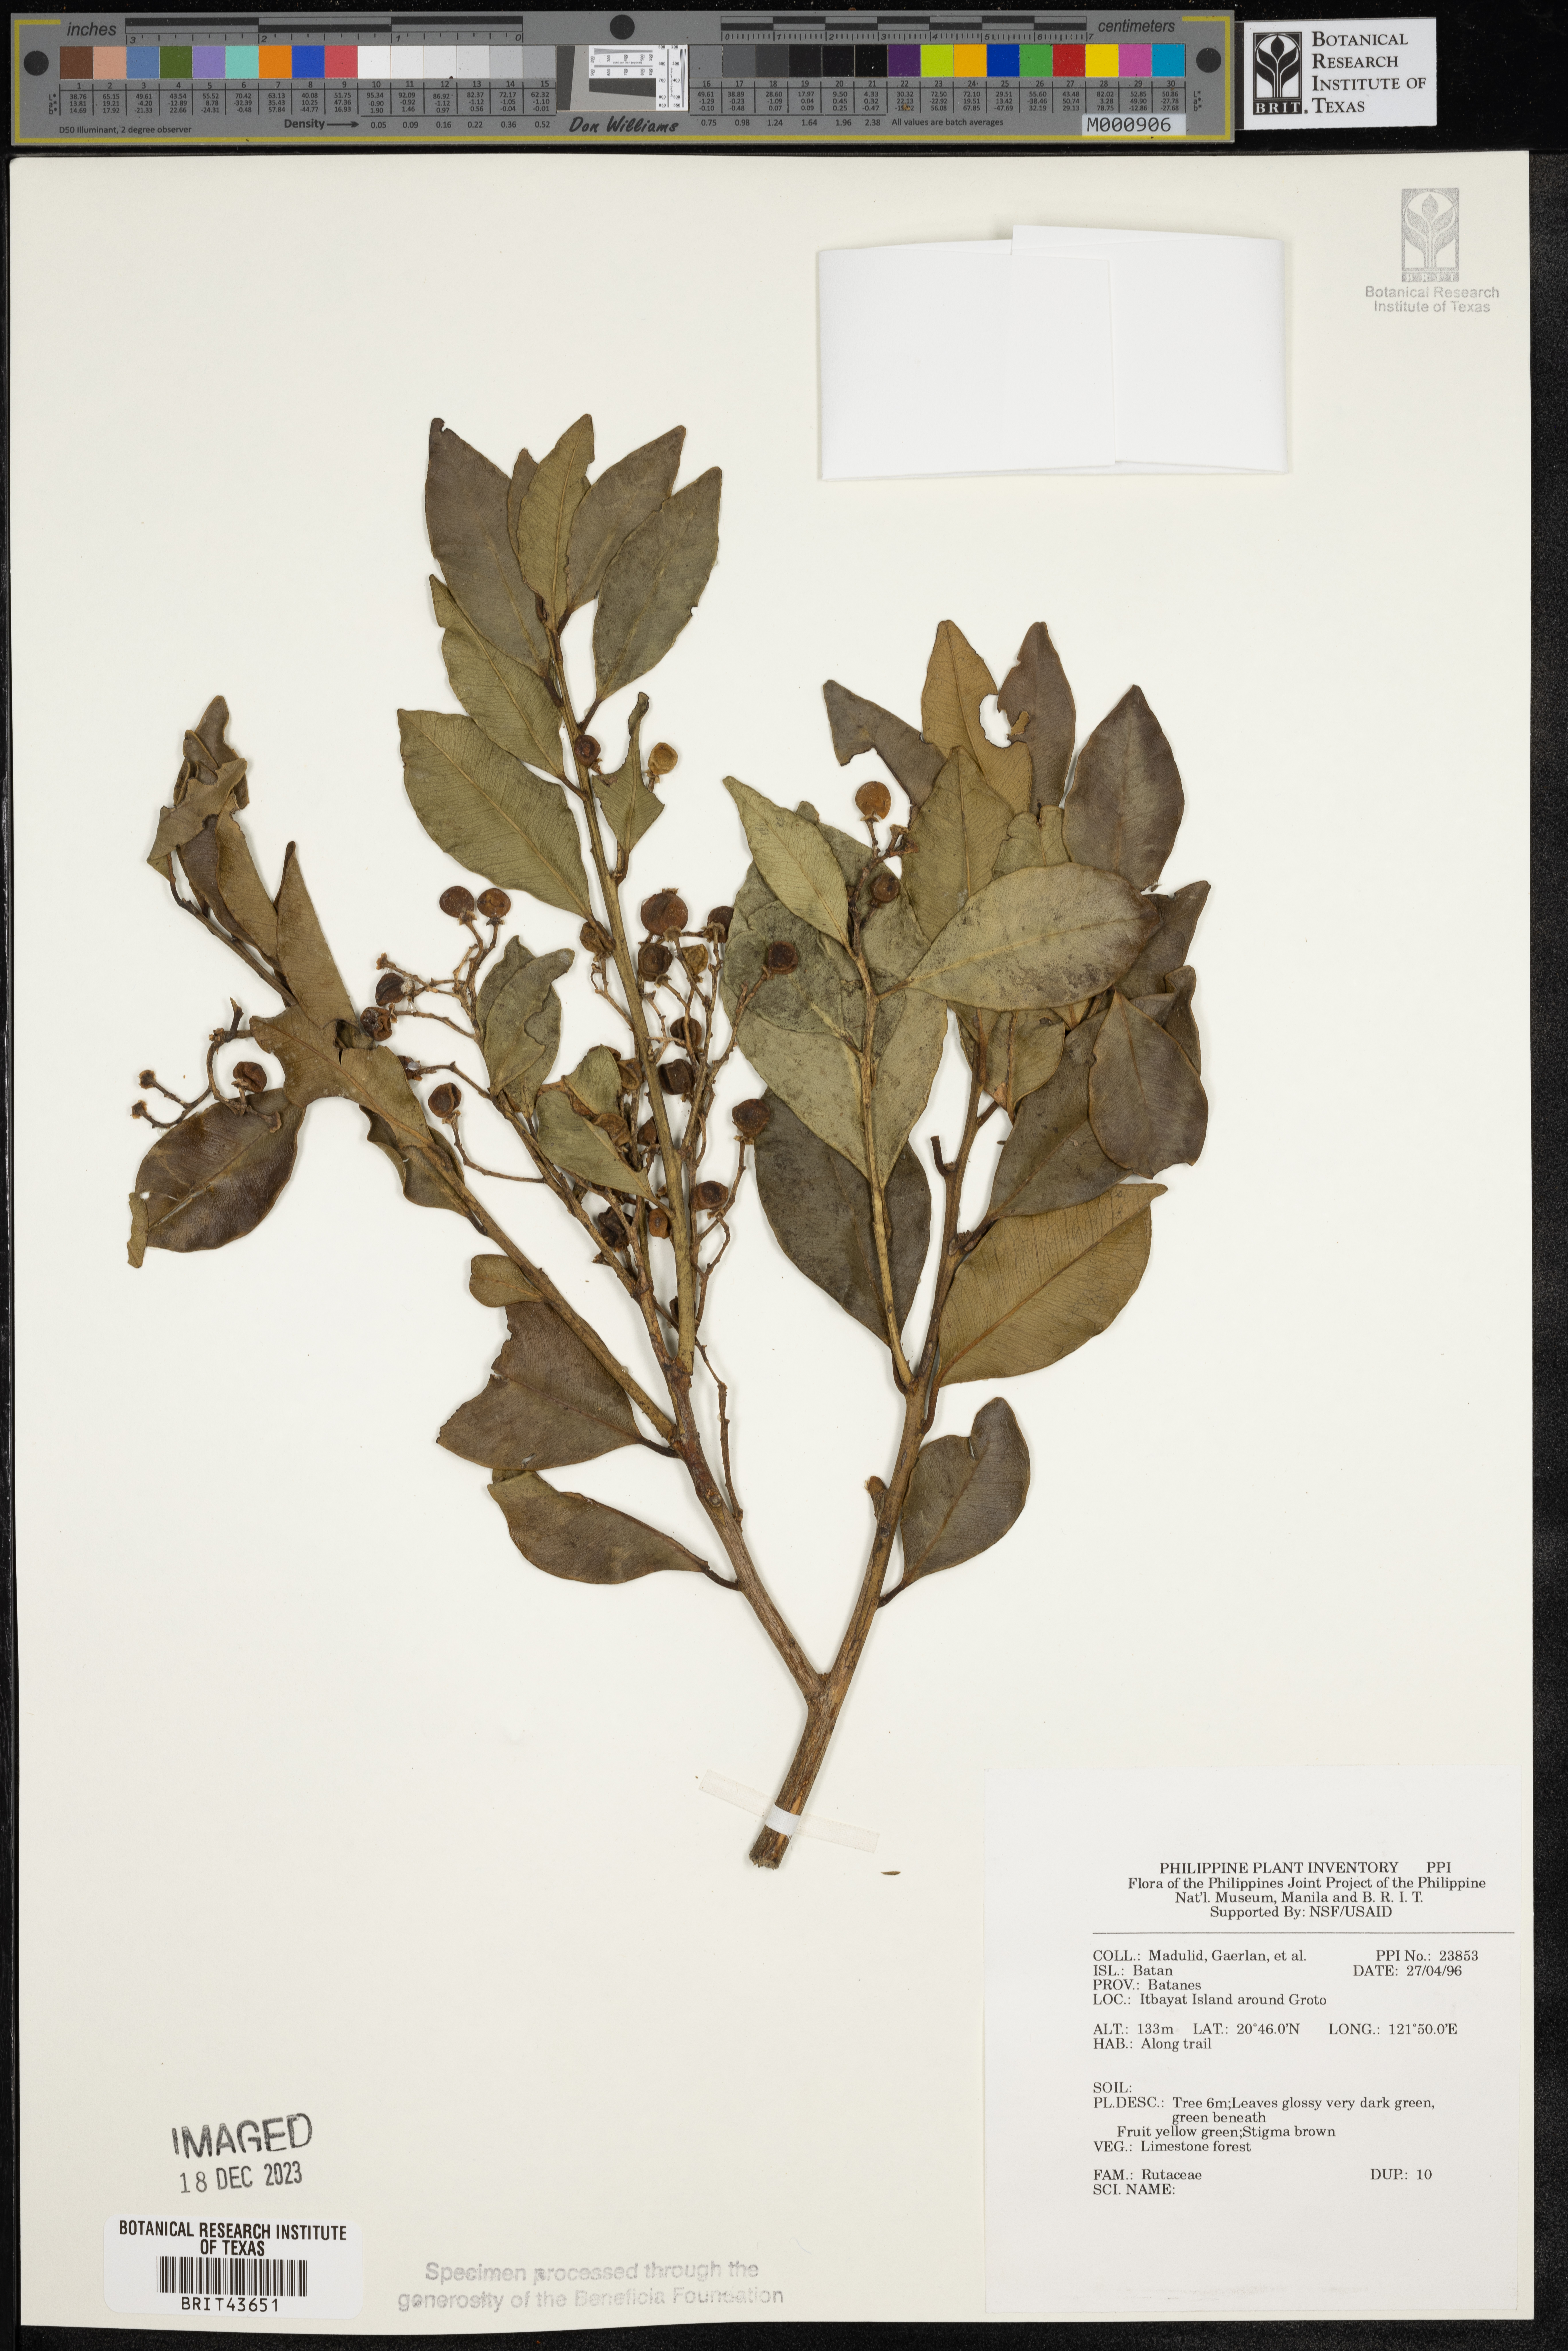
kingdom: Plantae
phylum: Tracheophyta
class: Magnoliopsida
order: Sapindales
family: Rutaceae
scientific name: Rutaceae
